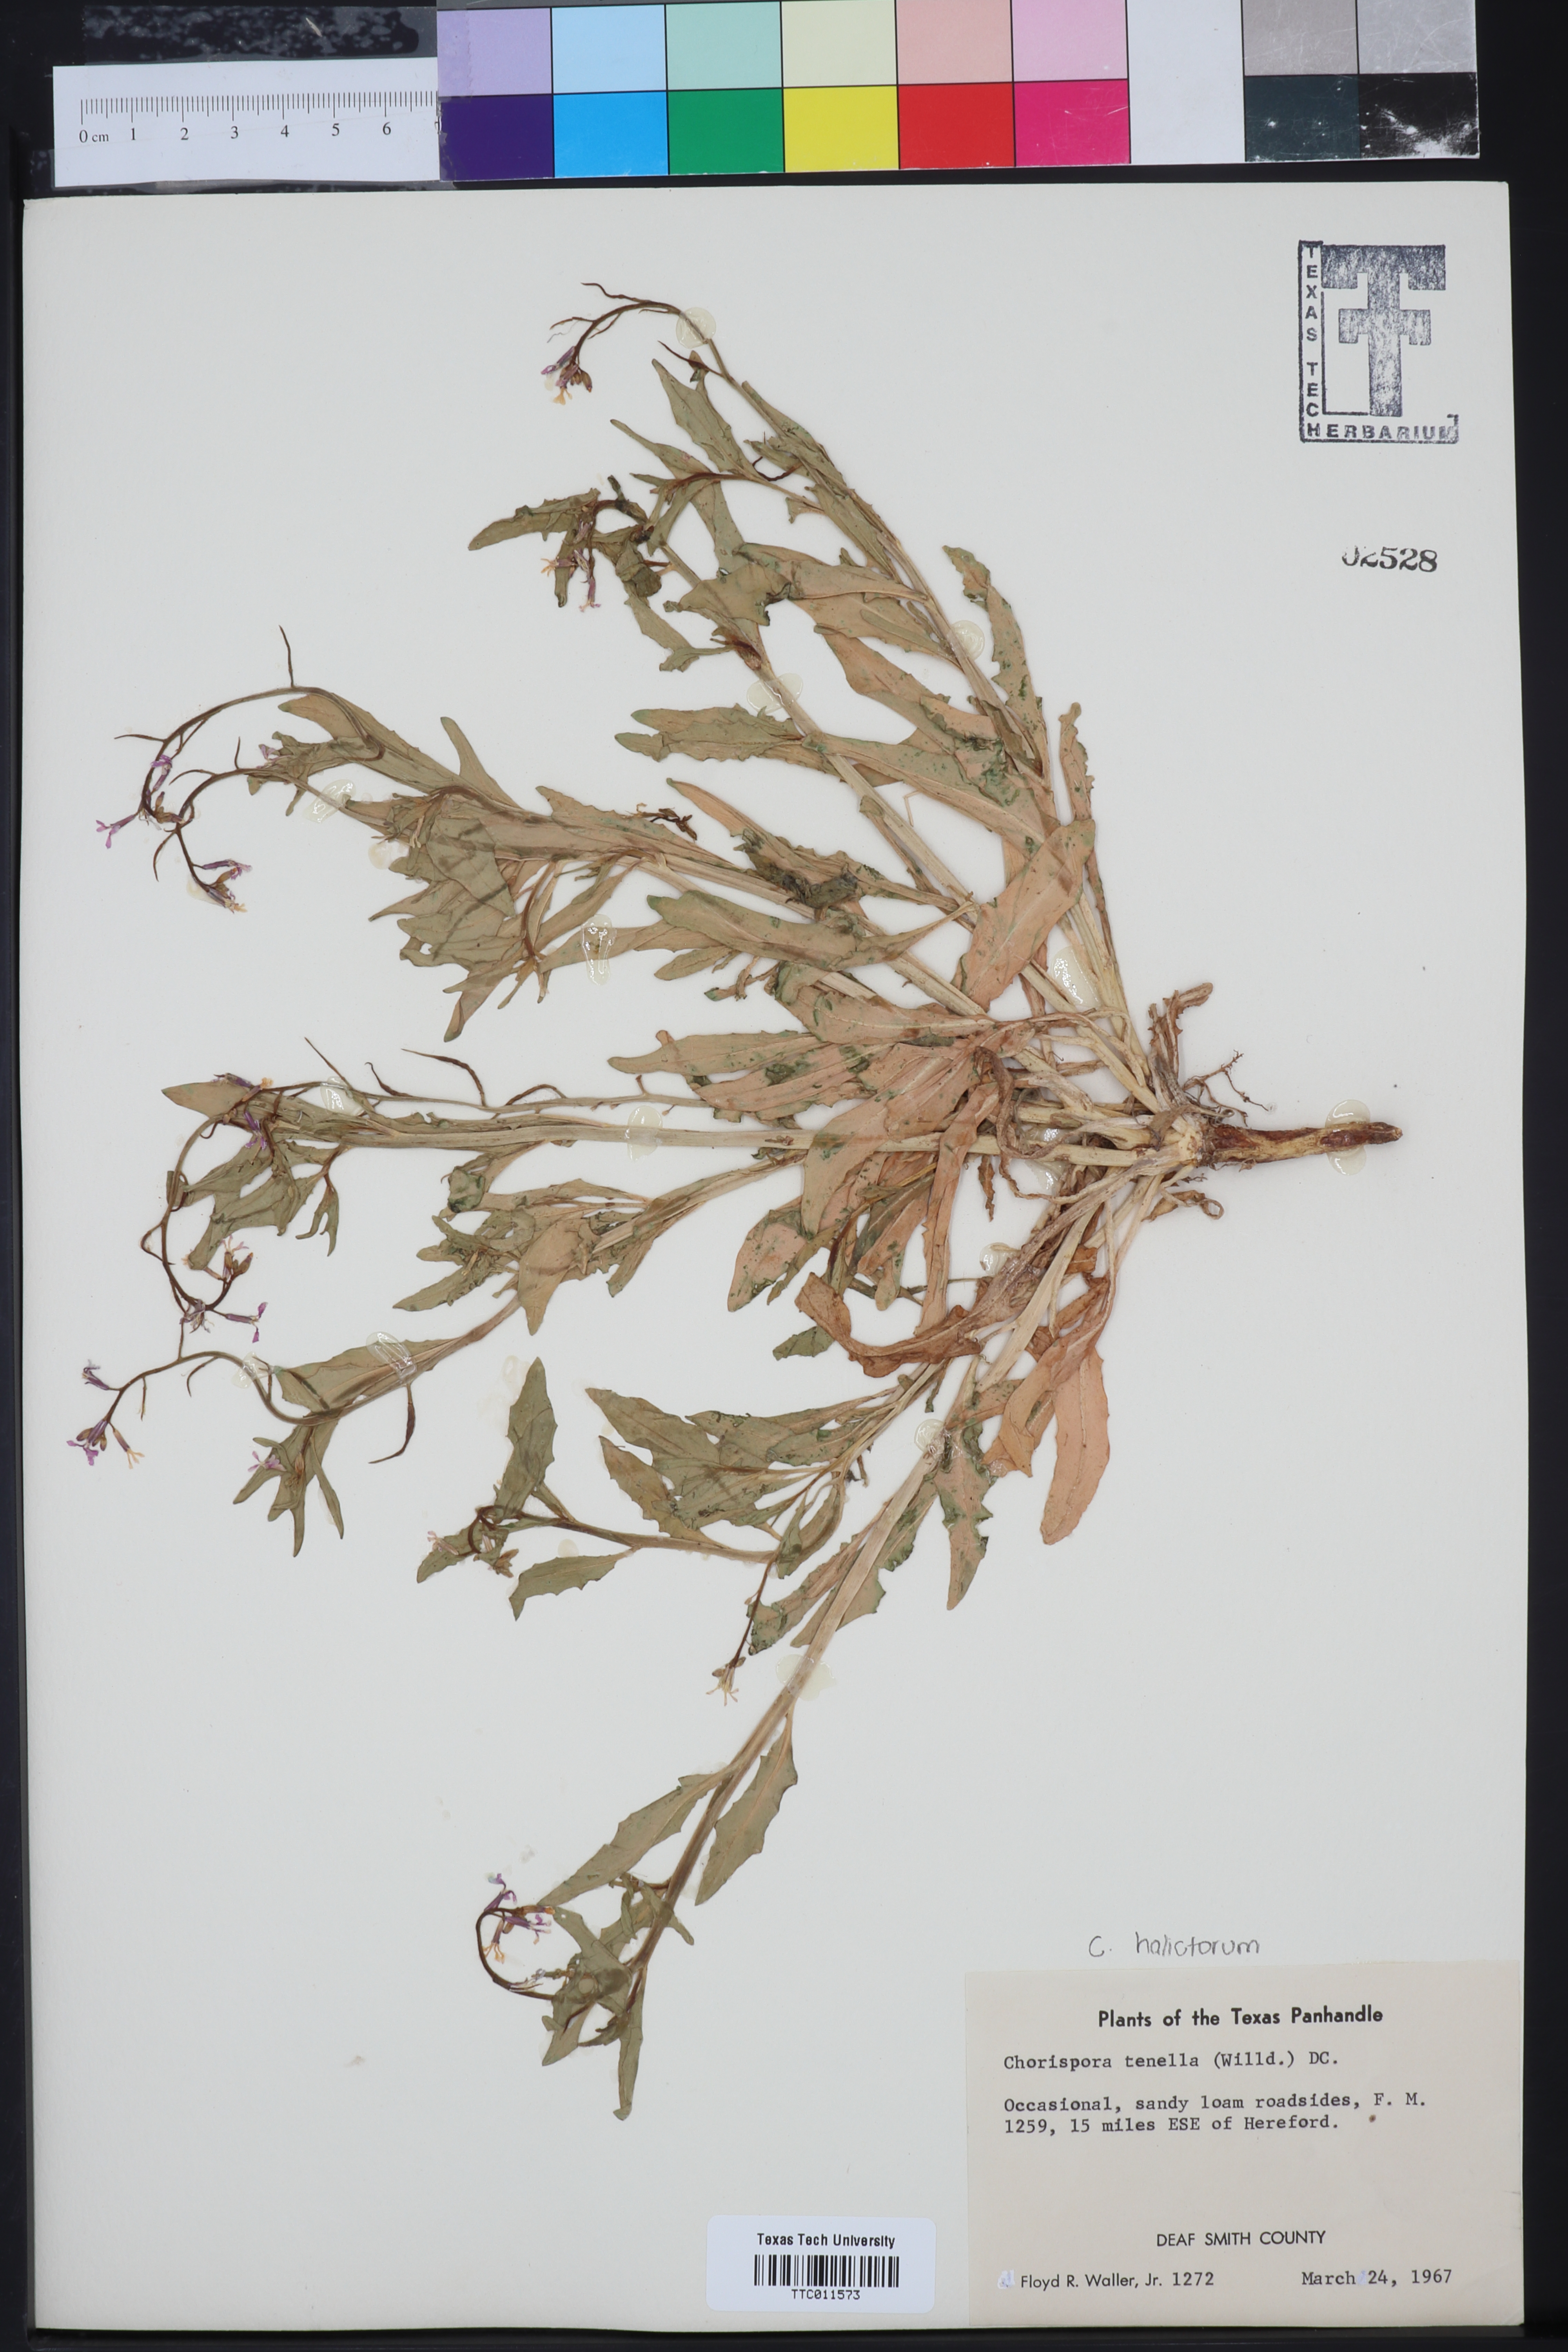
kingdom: Plantae
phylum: Tracheophyta
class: Magnoliopsida
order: Brassicales
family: Brassicaceae
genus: Chorispora
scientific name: Chorispora tenella
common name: Crossflower
